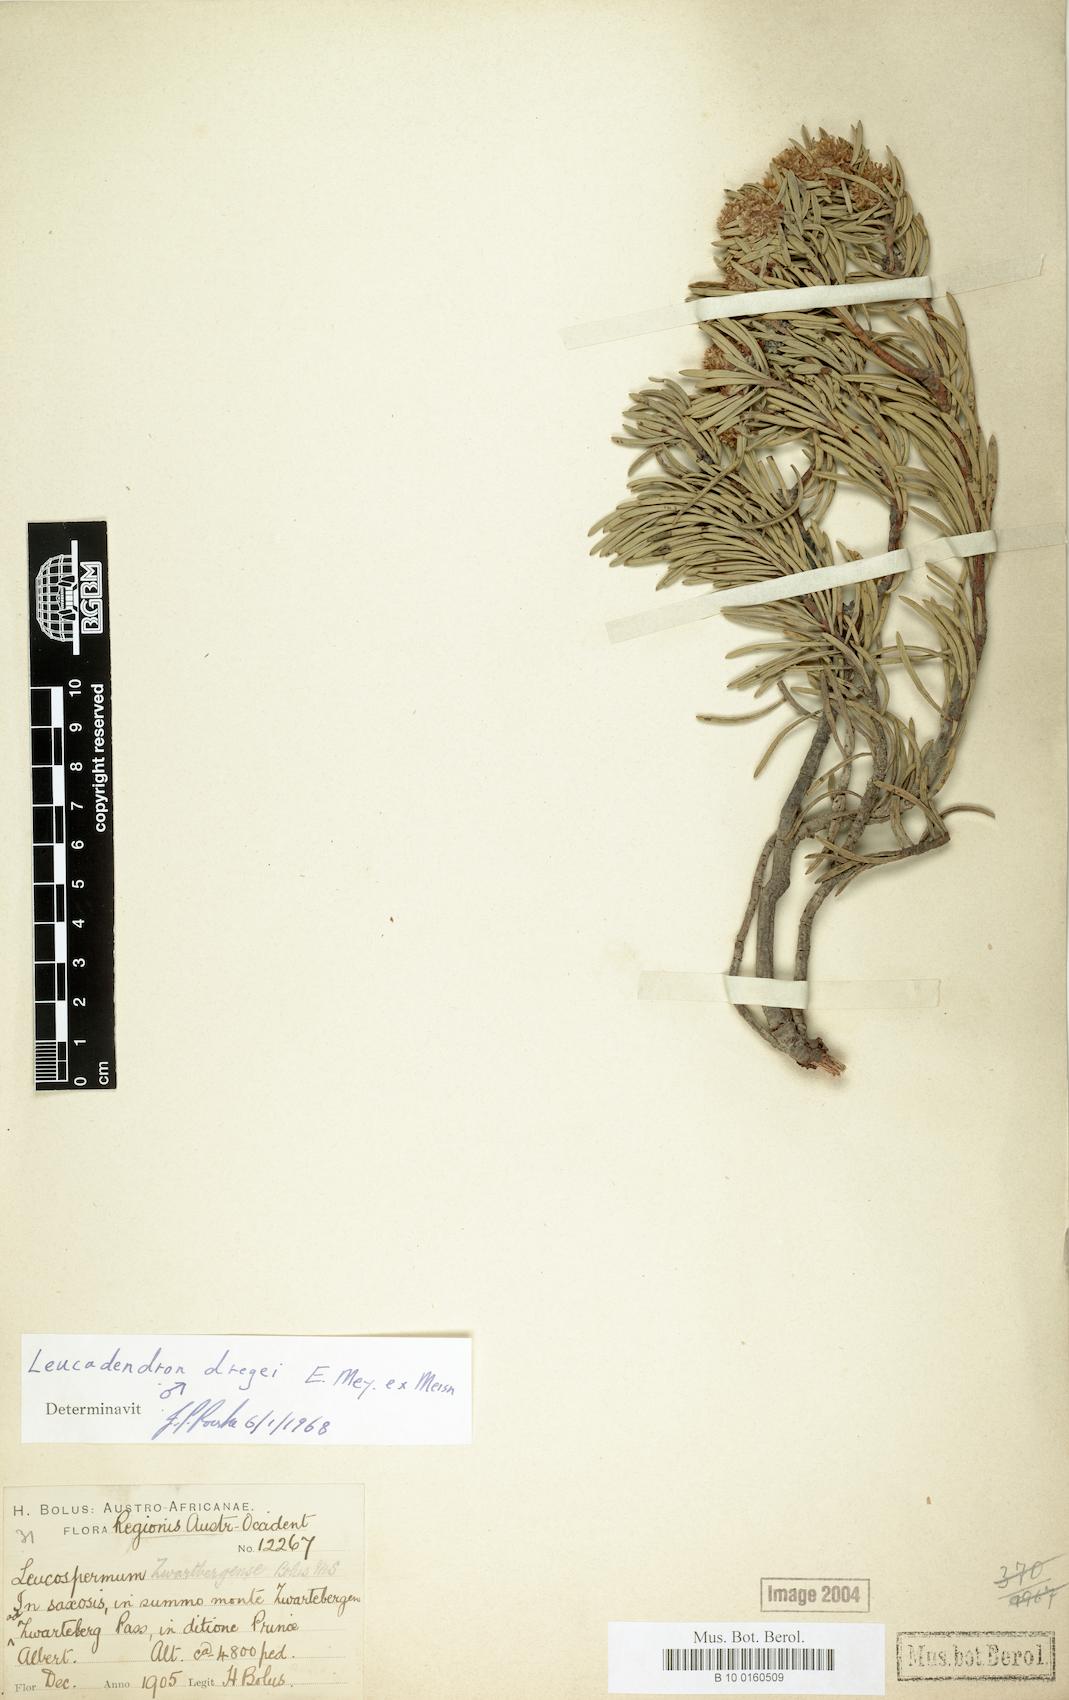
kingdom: Plantae
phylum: Tracheophyta
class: Magnoliopsida
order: Proteales
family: Proteaceae
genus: Leucadendron
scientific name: Leucadendron dregei
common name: Summit conebush
